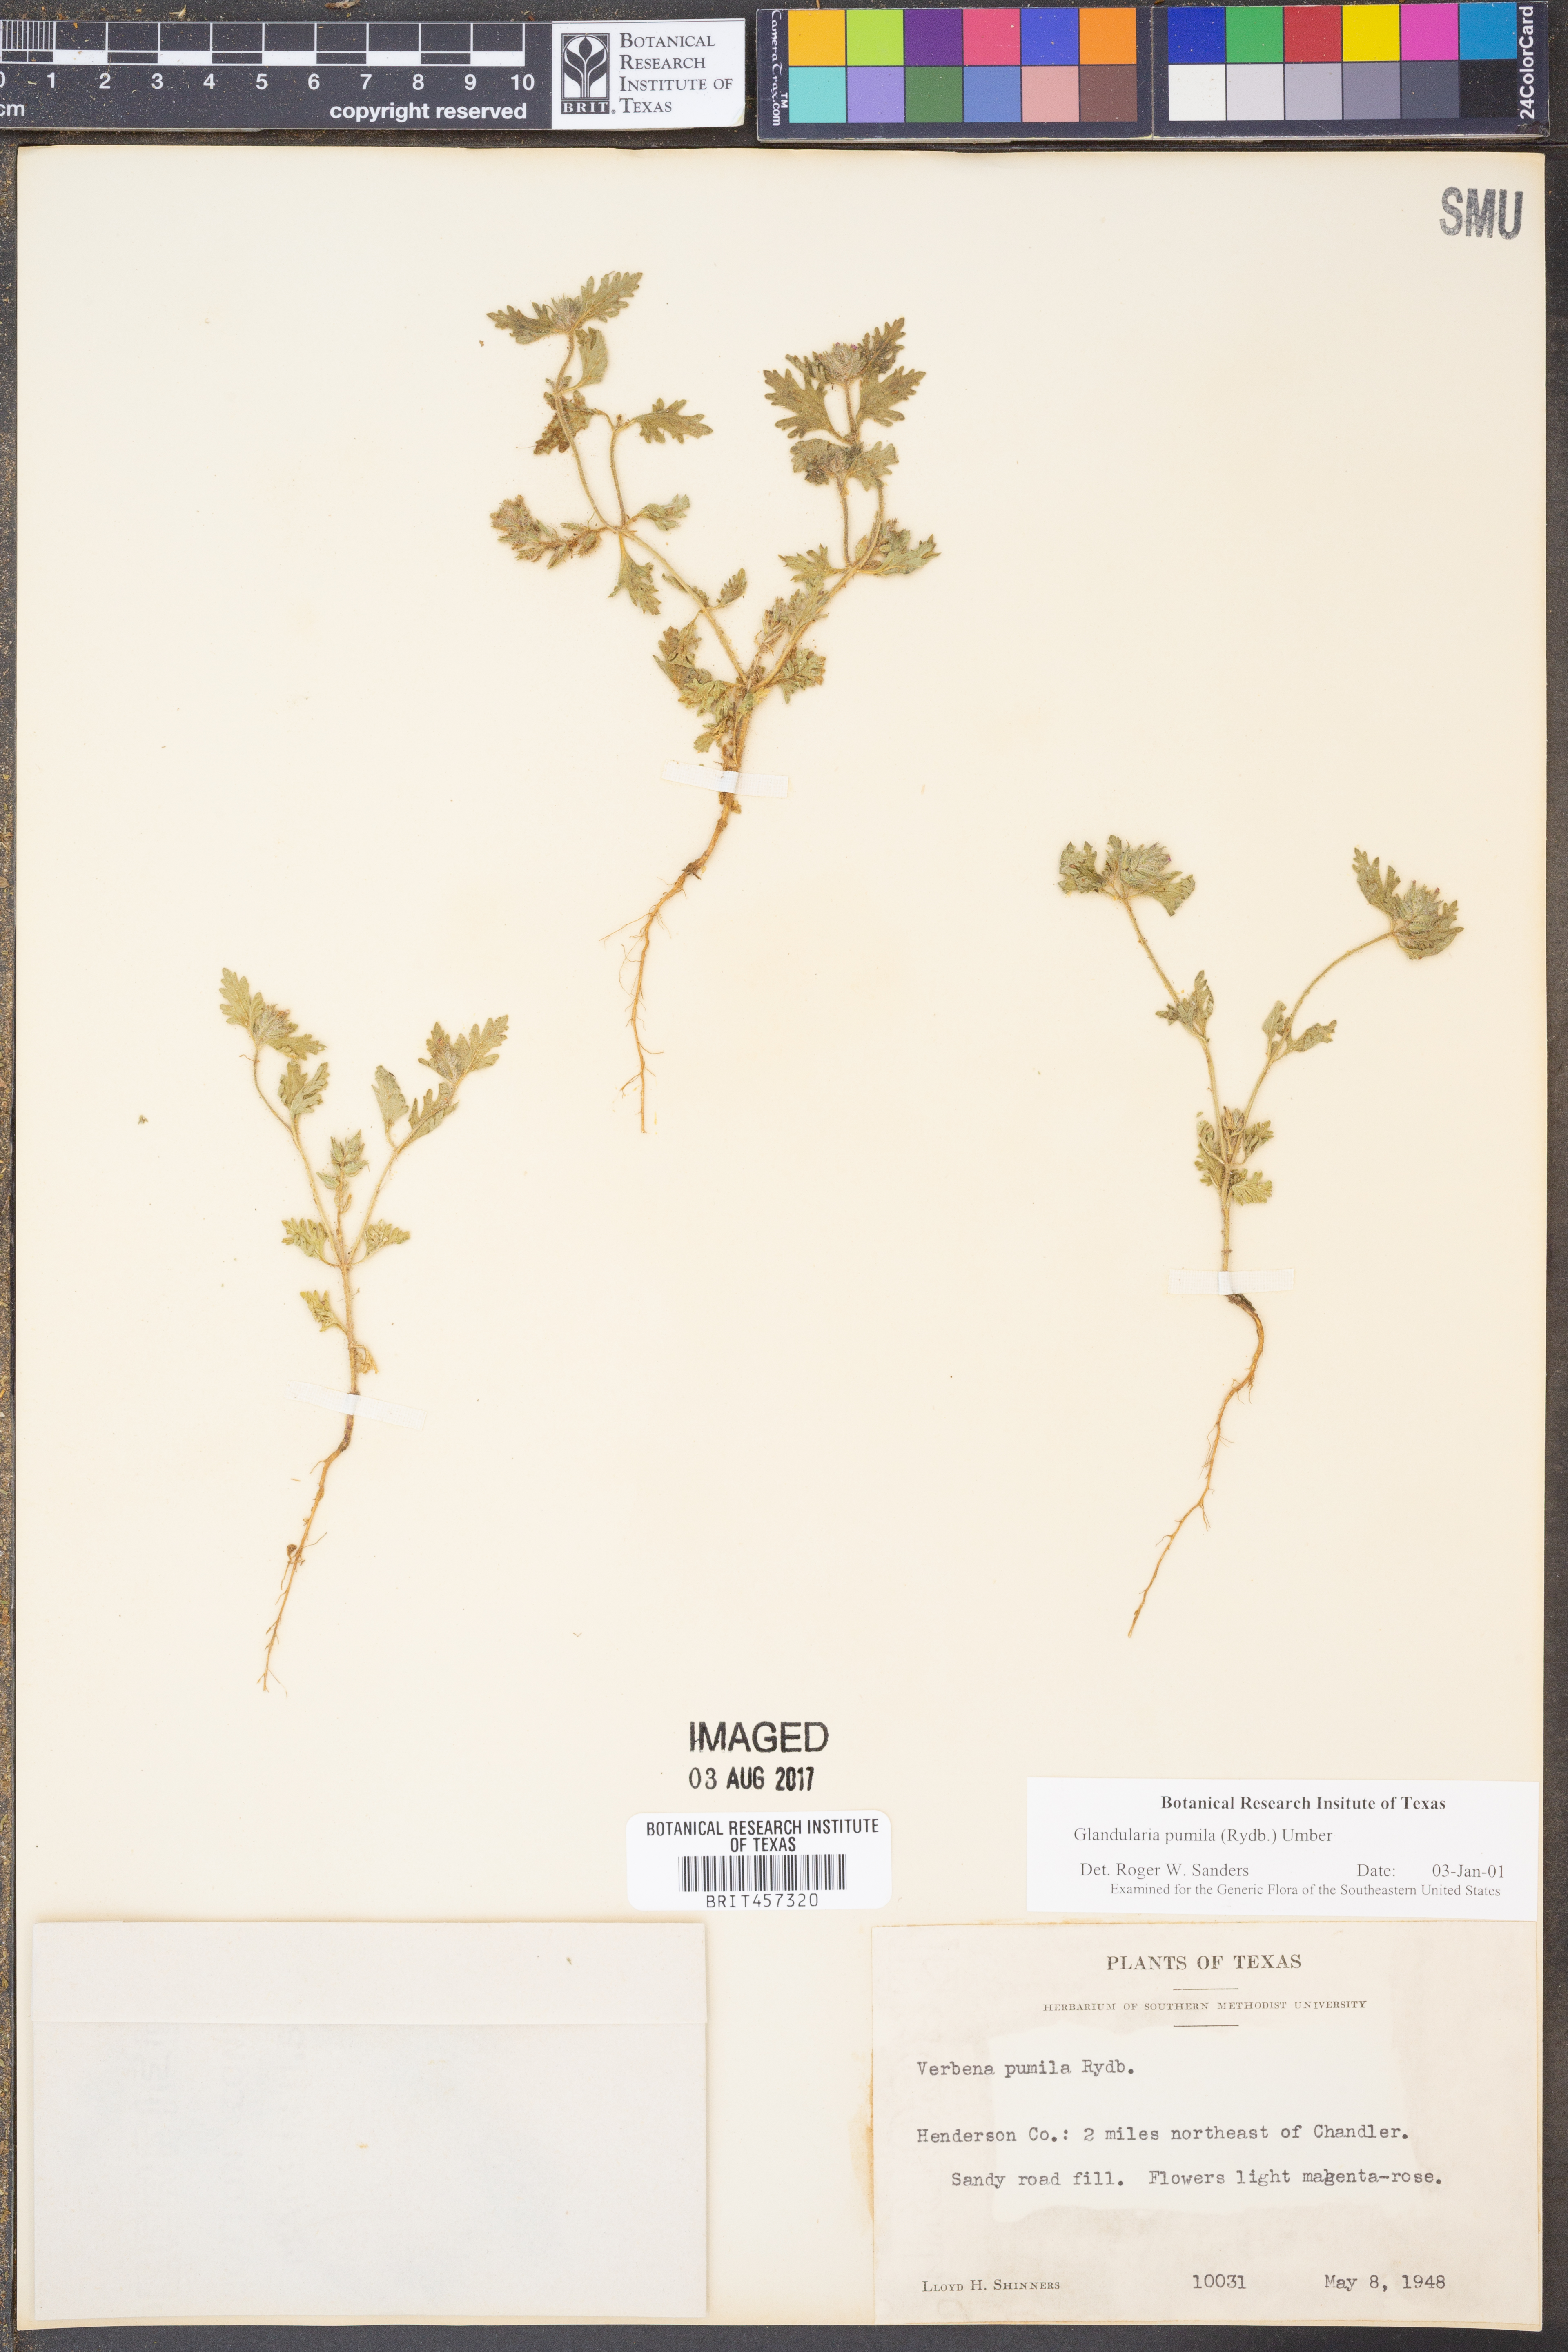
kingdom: Plantae
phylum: Tracheophyta
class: Magnoliopsida
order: Lamiales
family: Verbenaceae
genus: Verbena
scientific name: Verbena pumila
